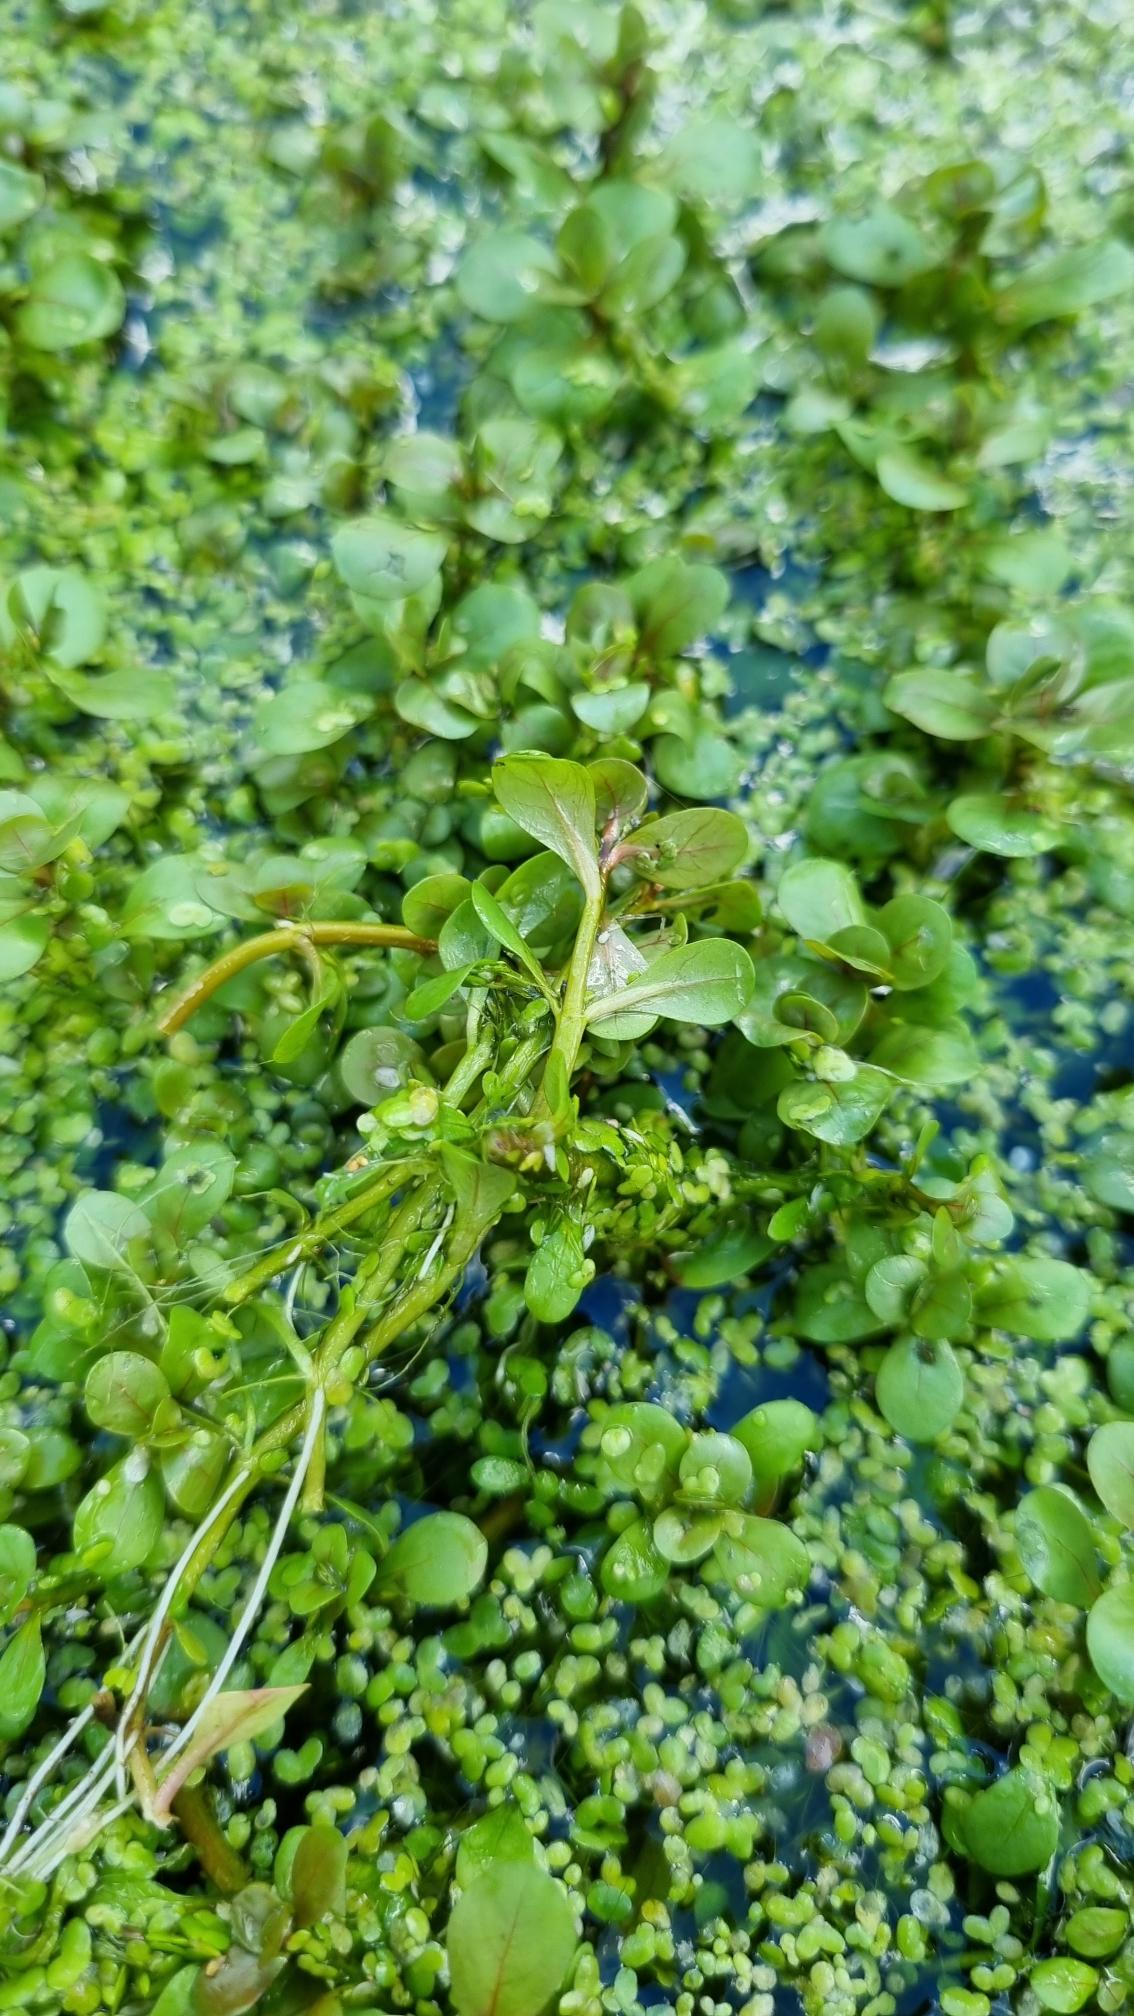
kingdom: Plantae
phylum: Tracheophyta
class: Magnoliopsida
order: Myrtales
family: Lythraceae
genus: Lythrum
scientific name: Lythrum portula
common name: Vandportulak
